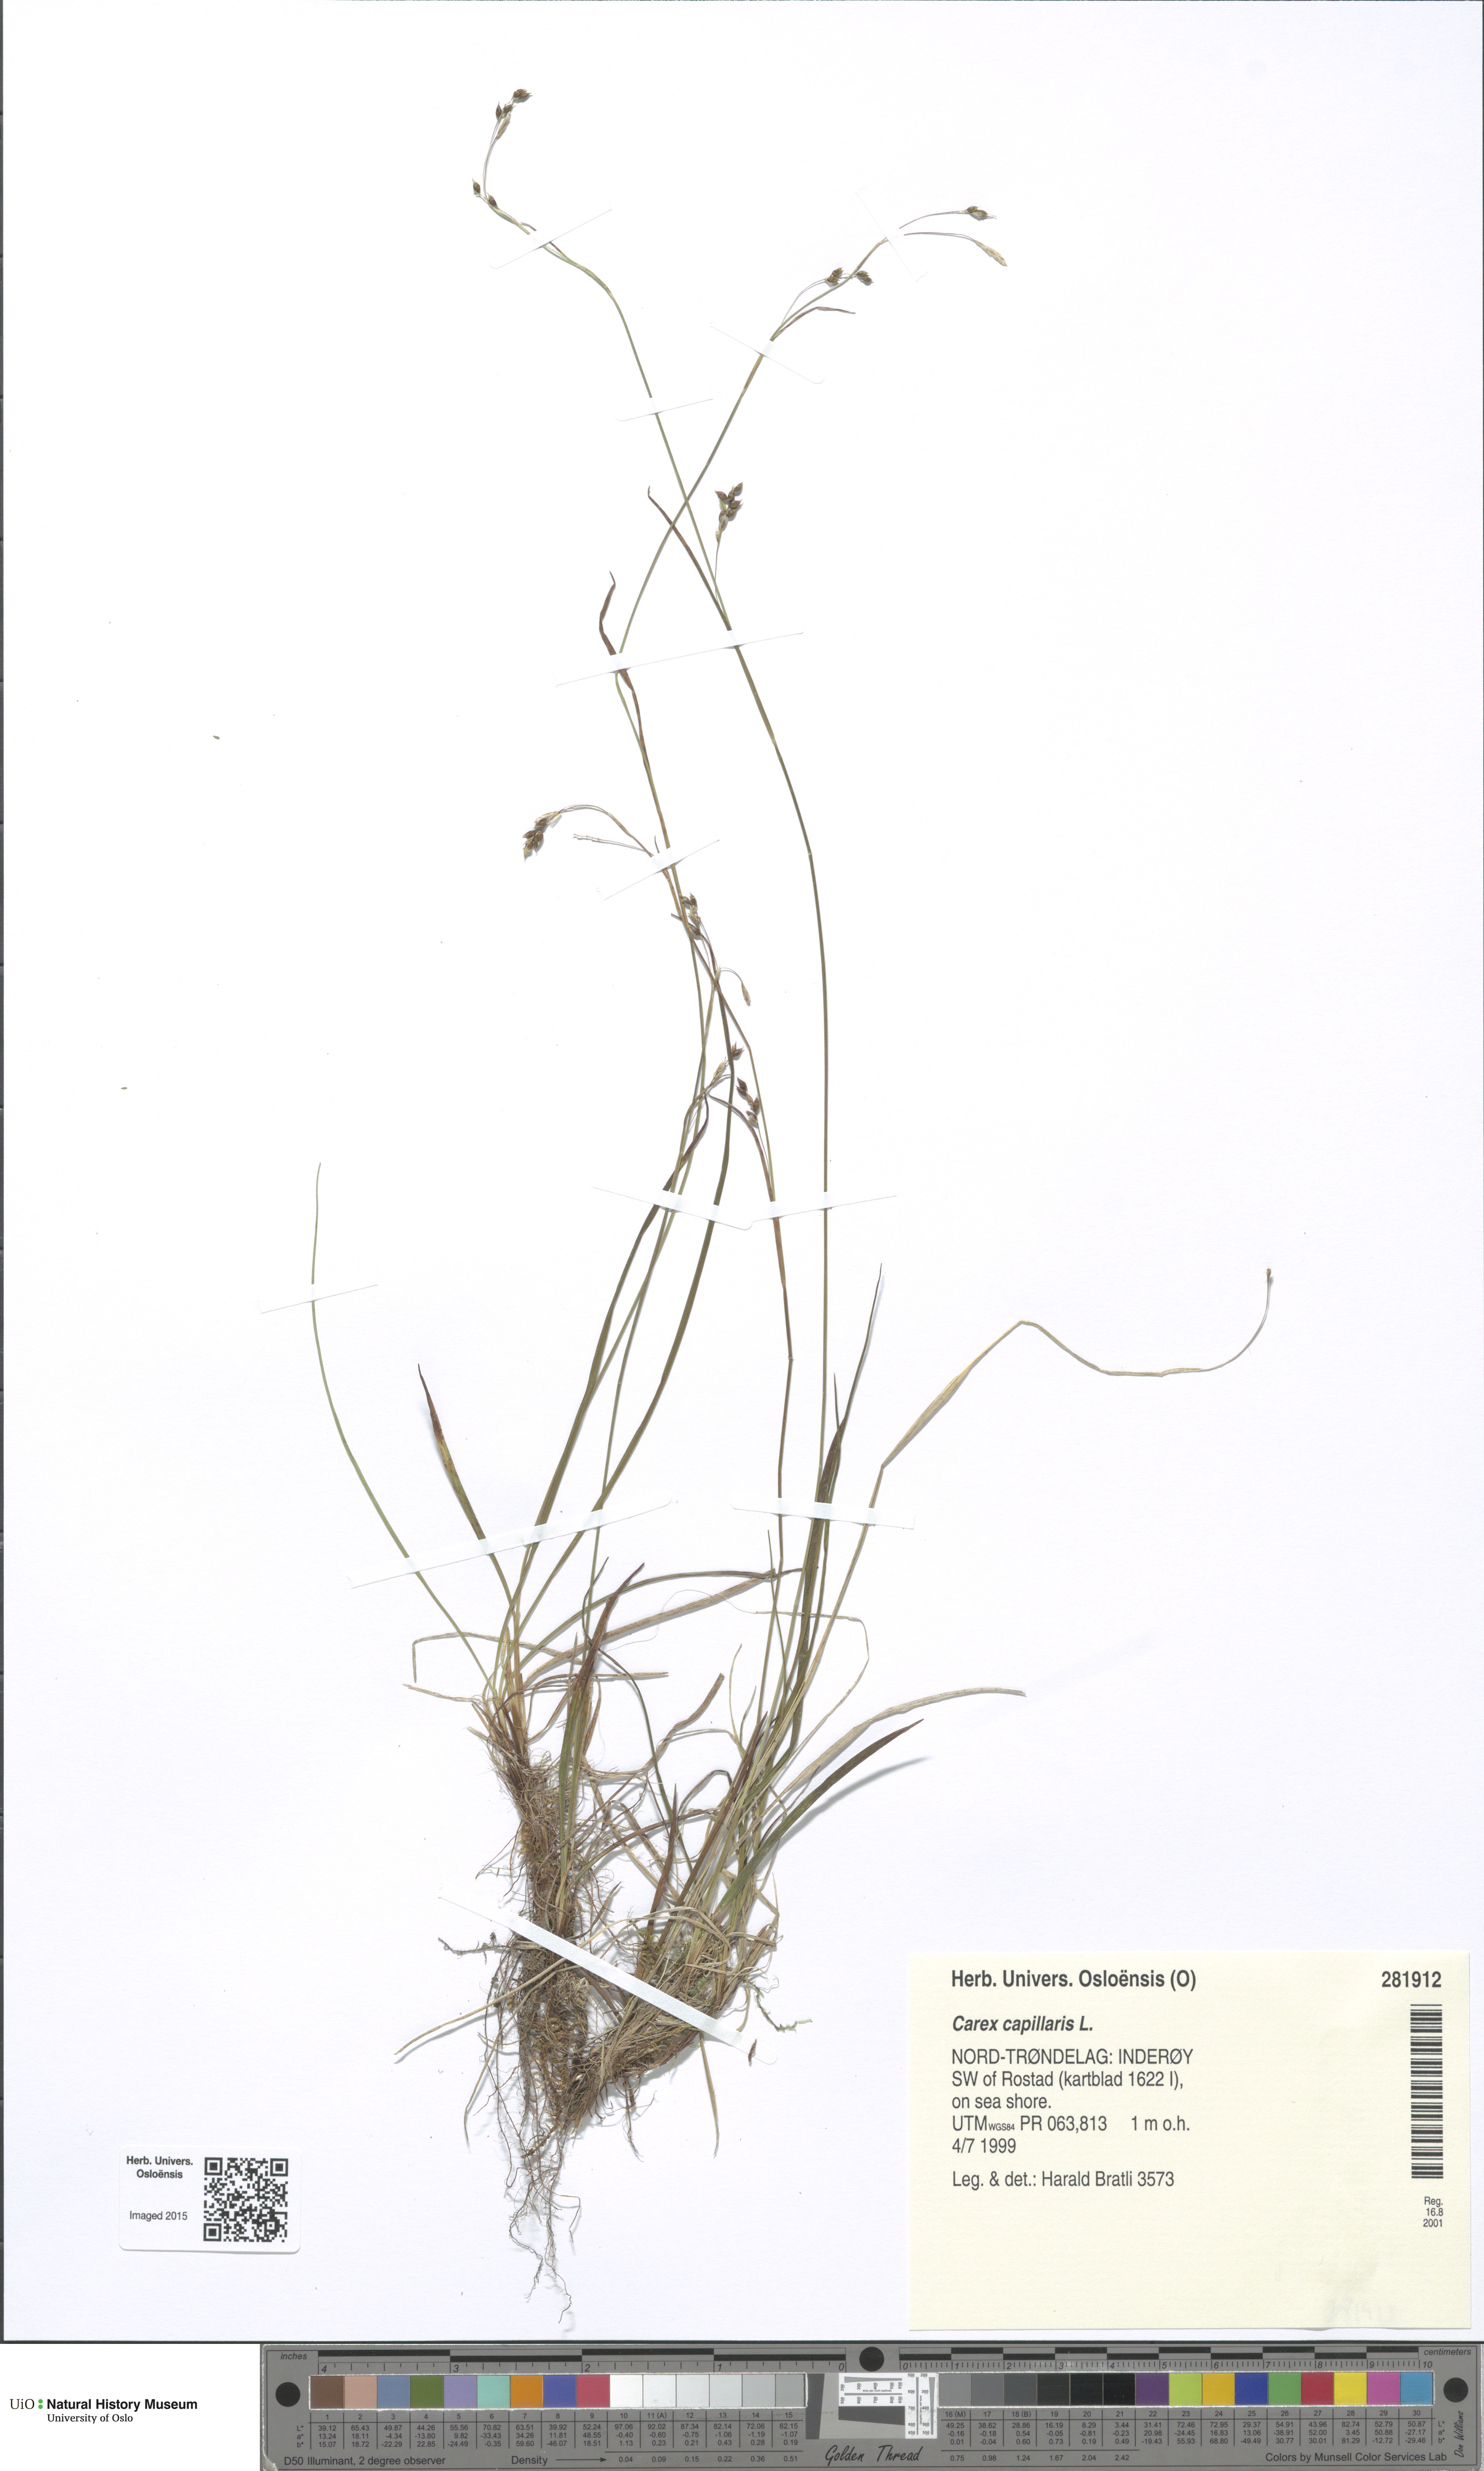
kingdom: Plantae
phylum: Tracheophyta
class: Liliopsida
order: Poales
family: Cyperaceae
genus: Carex
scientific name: Carex capillaris
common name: Hair sedge
